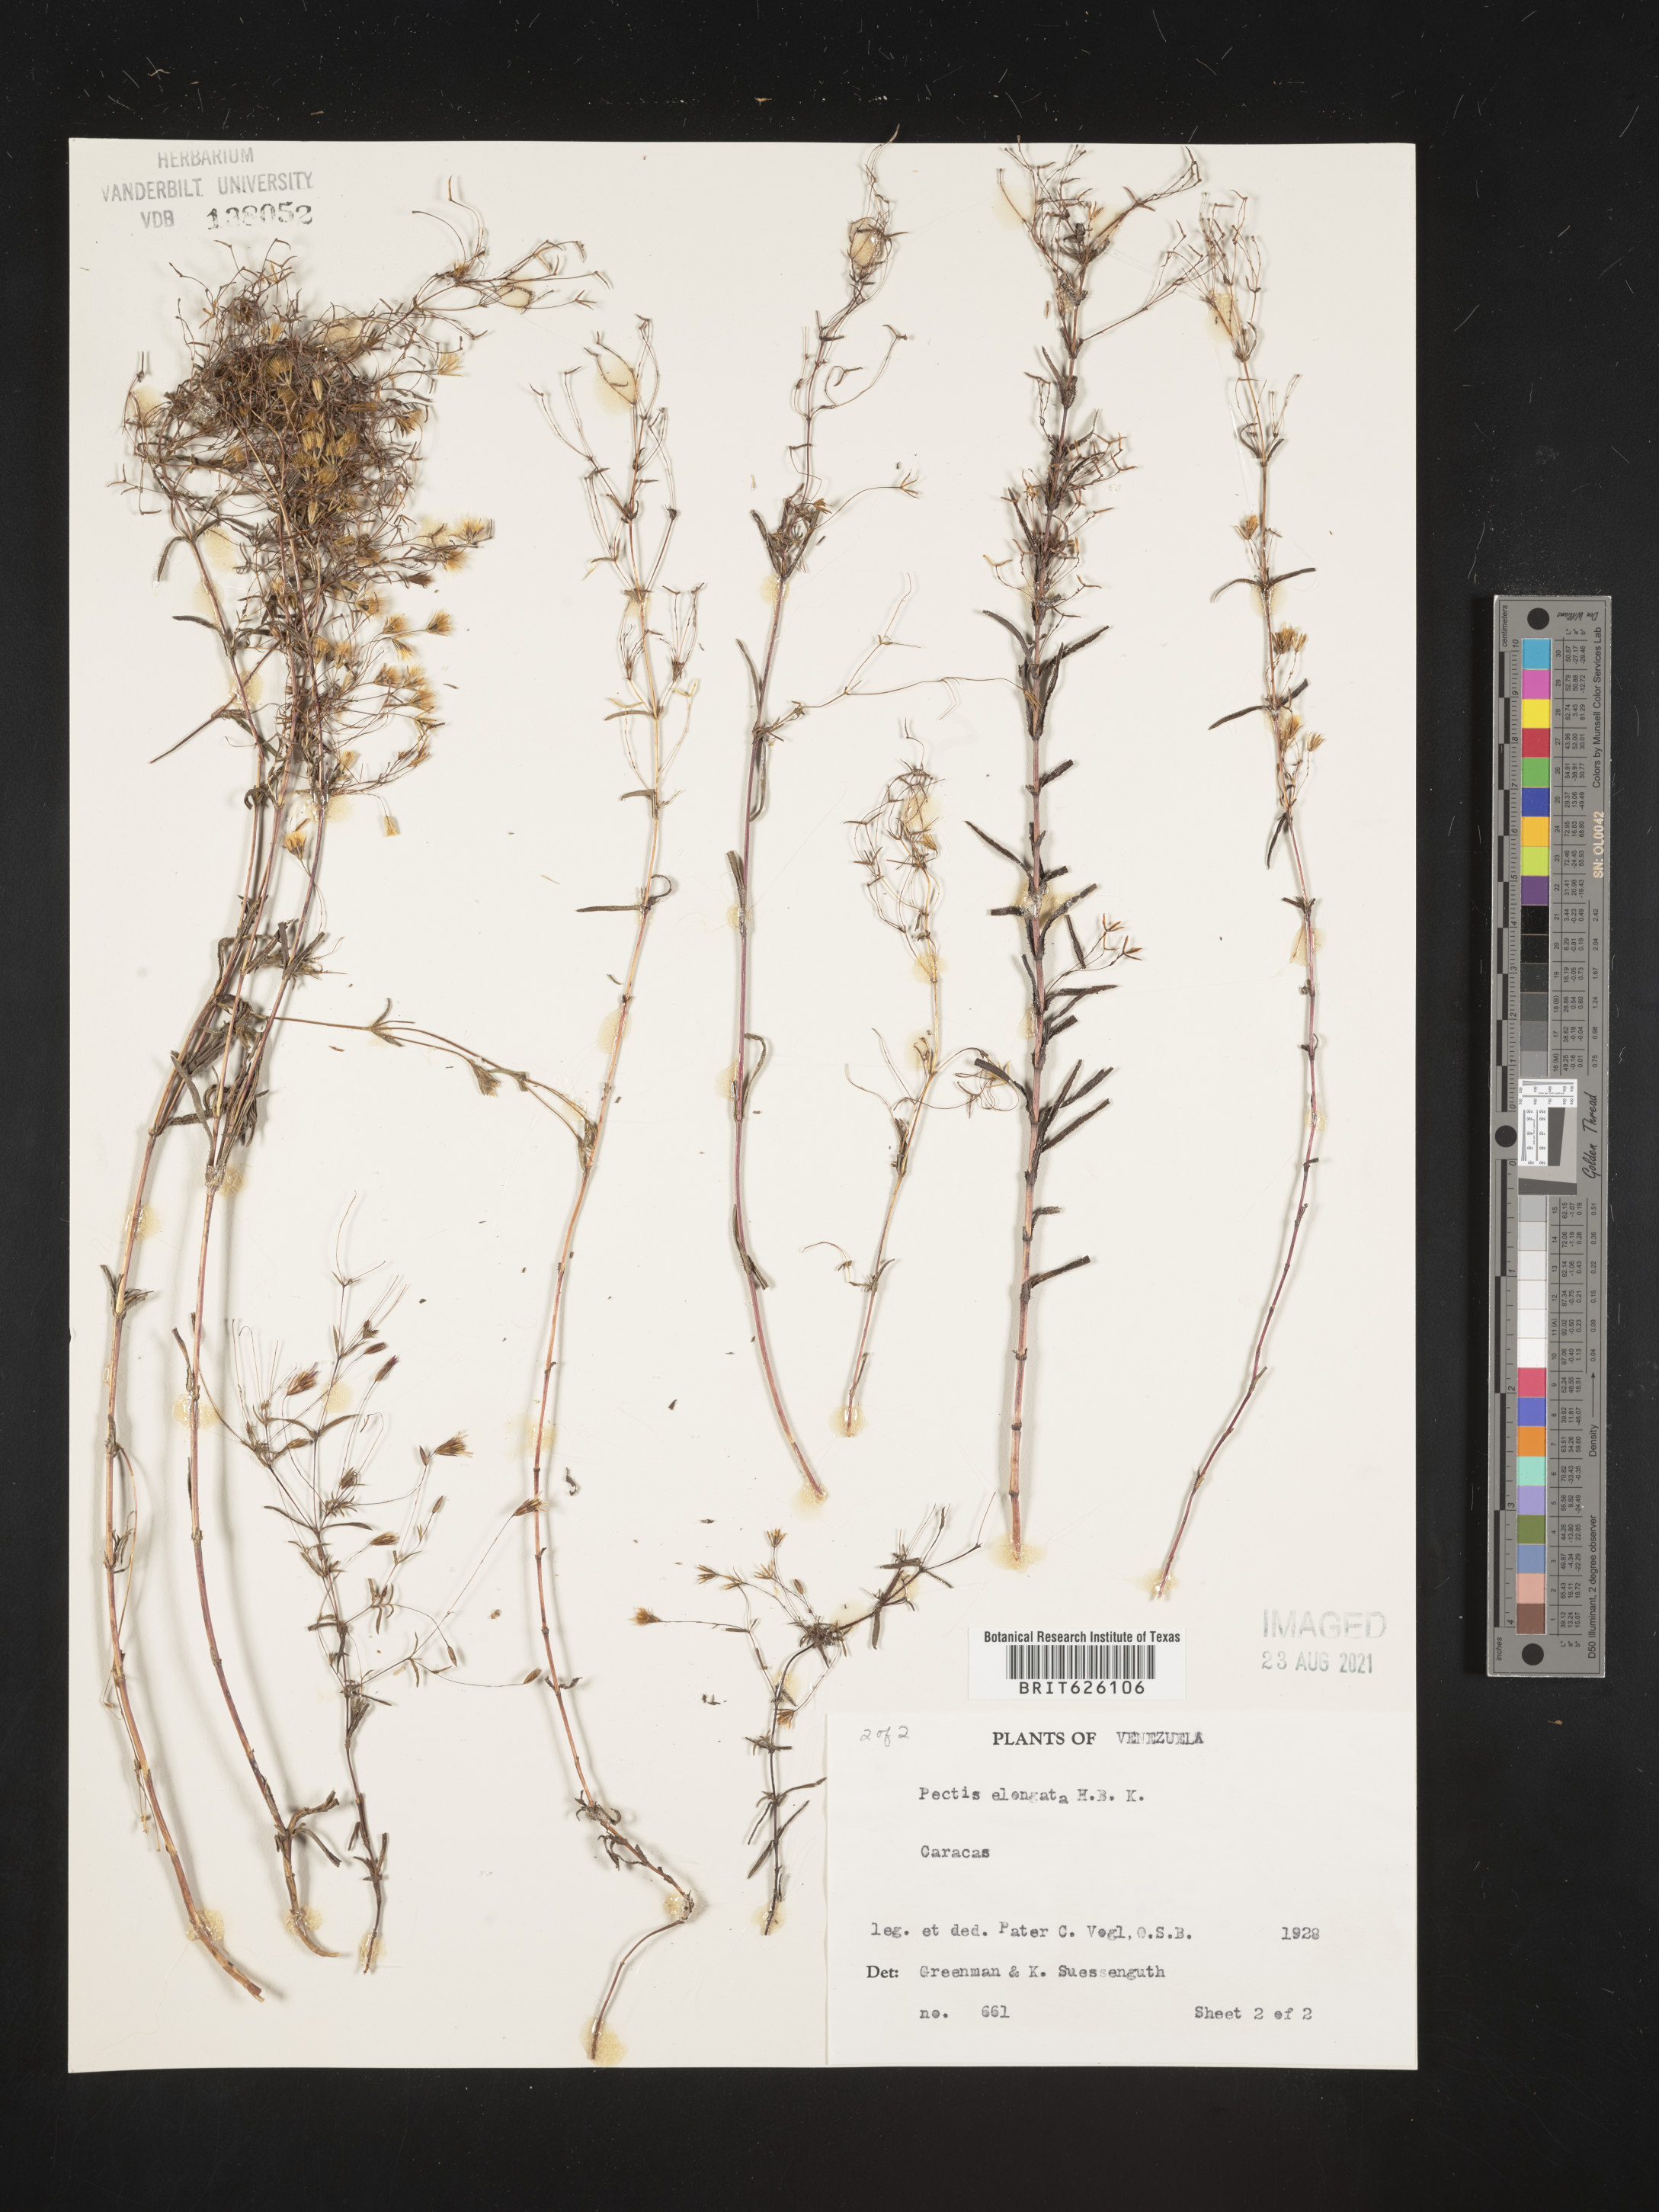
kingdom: Plantae
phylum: Tracheophyta
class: Magnoliopsida
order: Asterales
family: Asteraceae
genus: Pectis
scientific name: Pectis elongata
